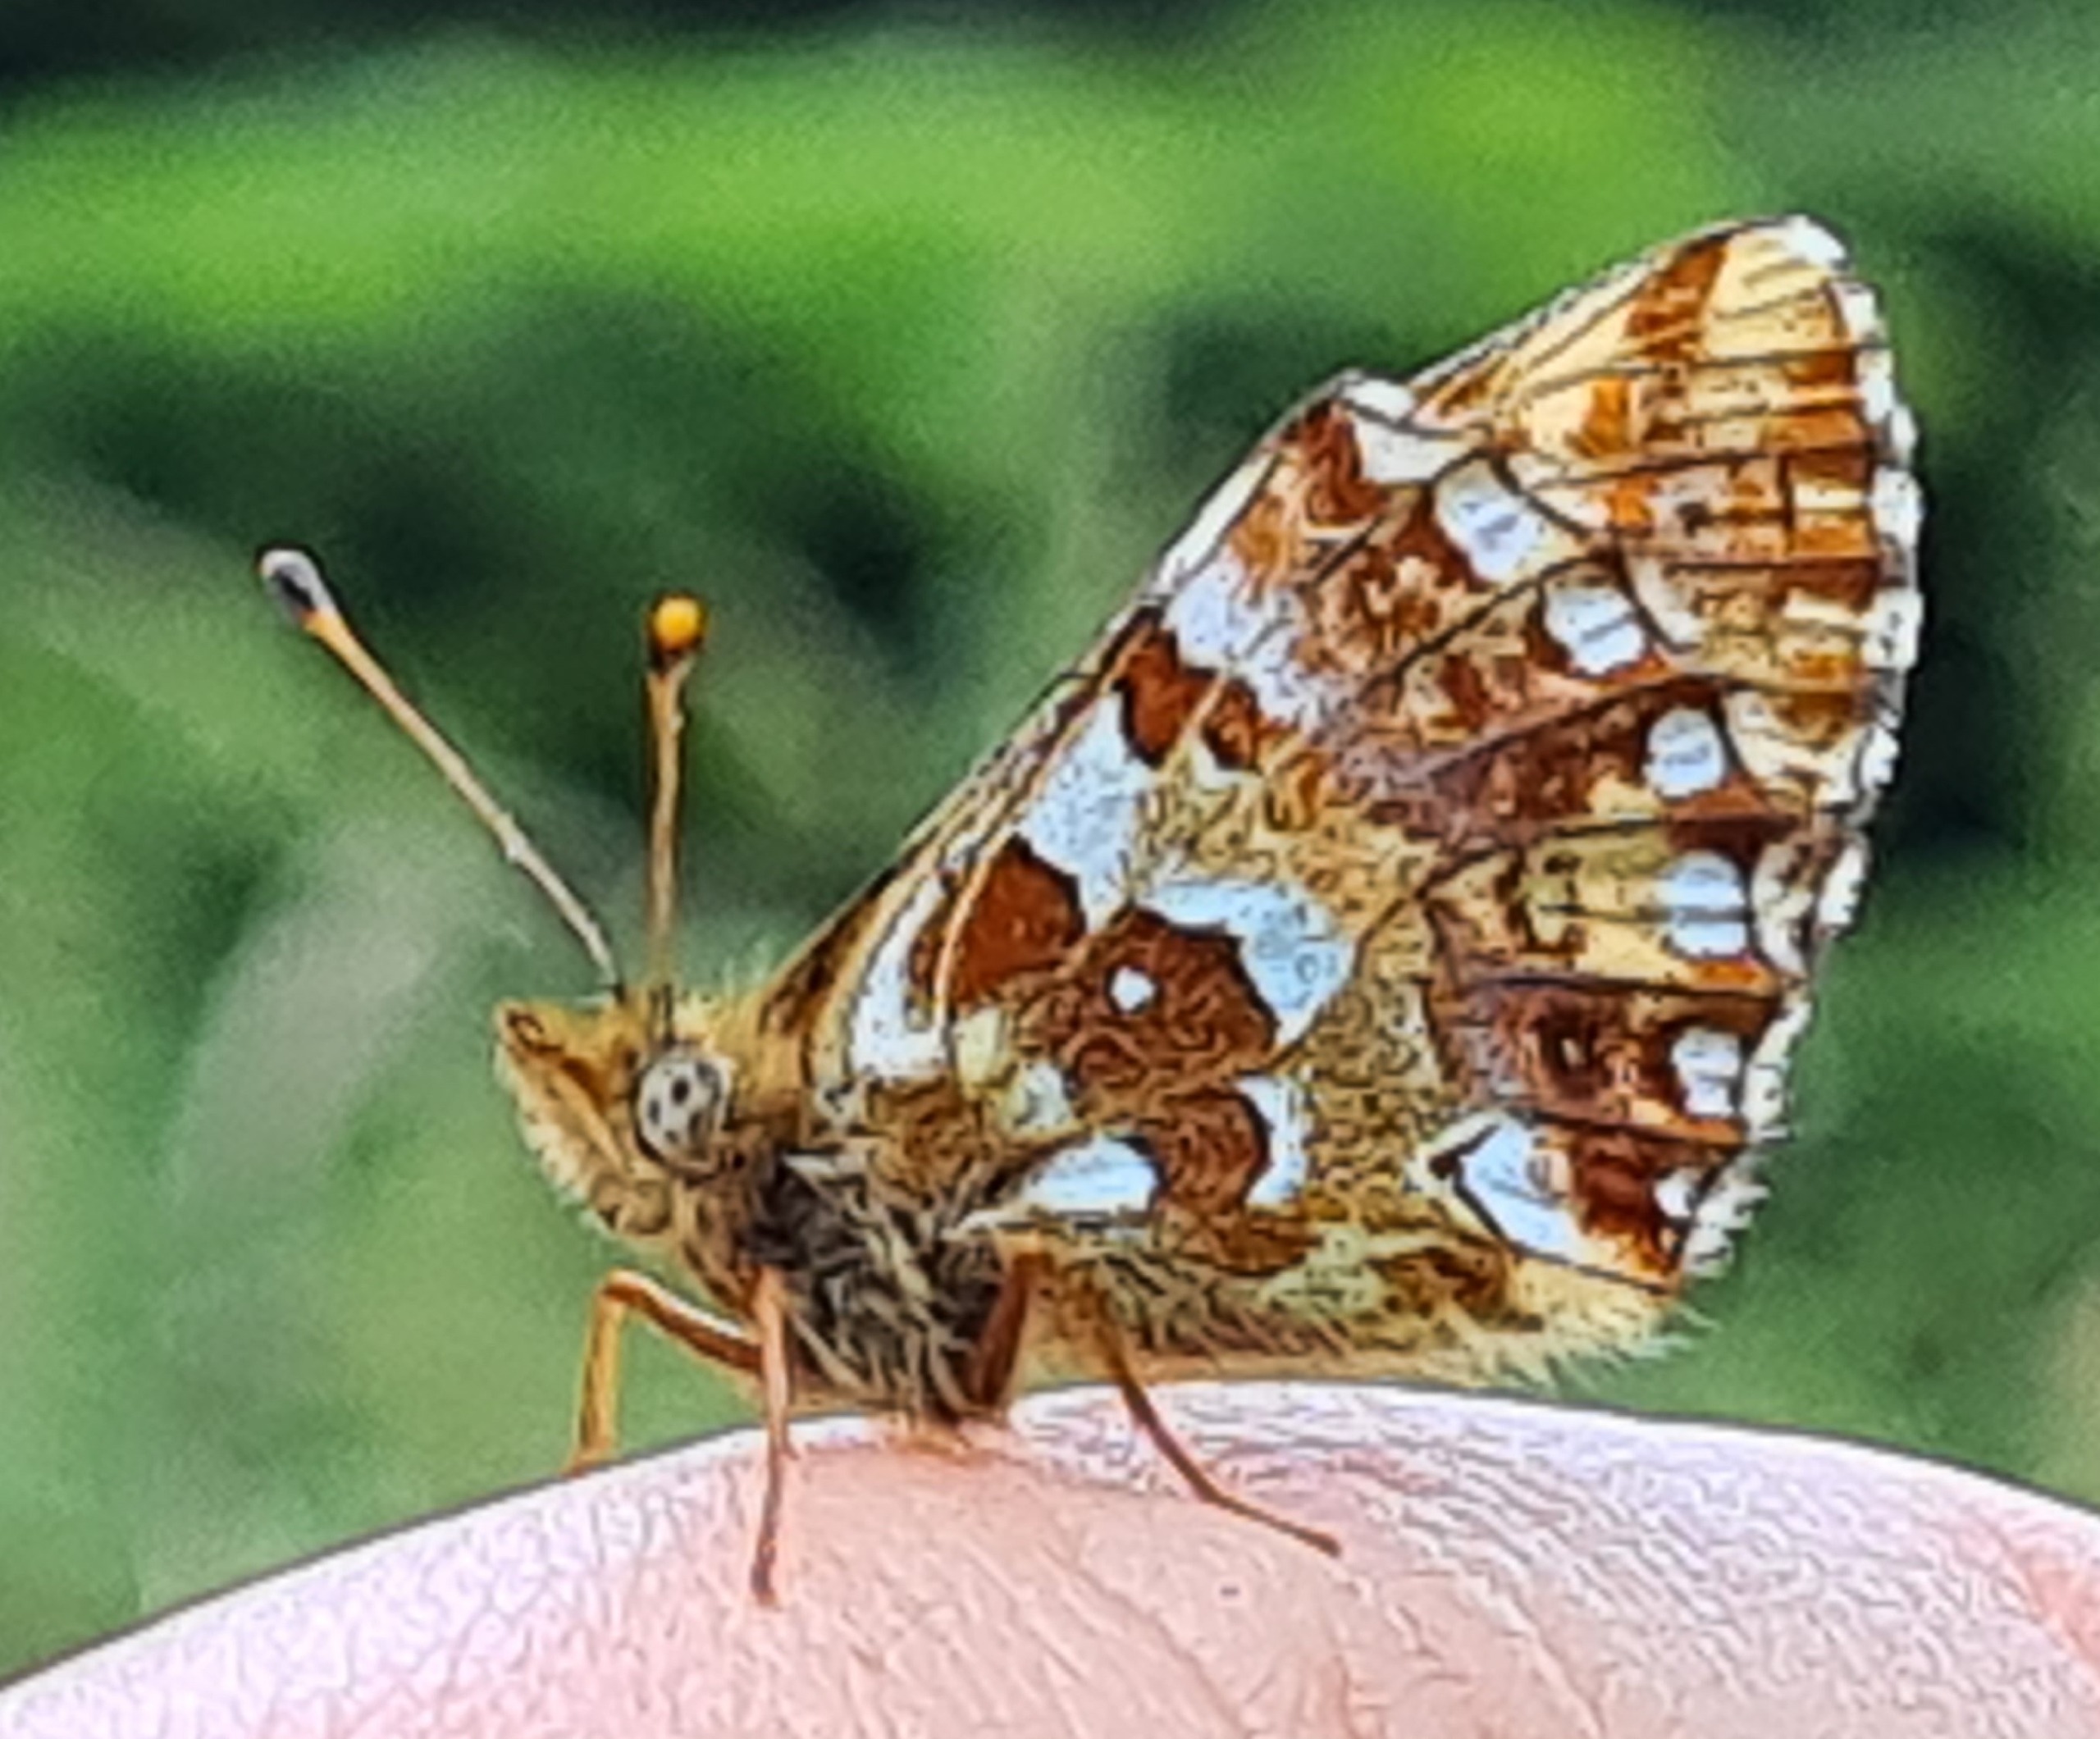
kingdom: Animalia
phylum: Arthropoda
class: Insecta
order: Lepidoptera
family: Nymphalidae
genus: Boloria
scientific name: Boloria aquilonaris
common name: Moseperlemorsommerfugl
